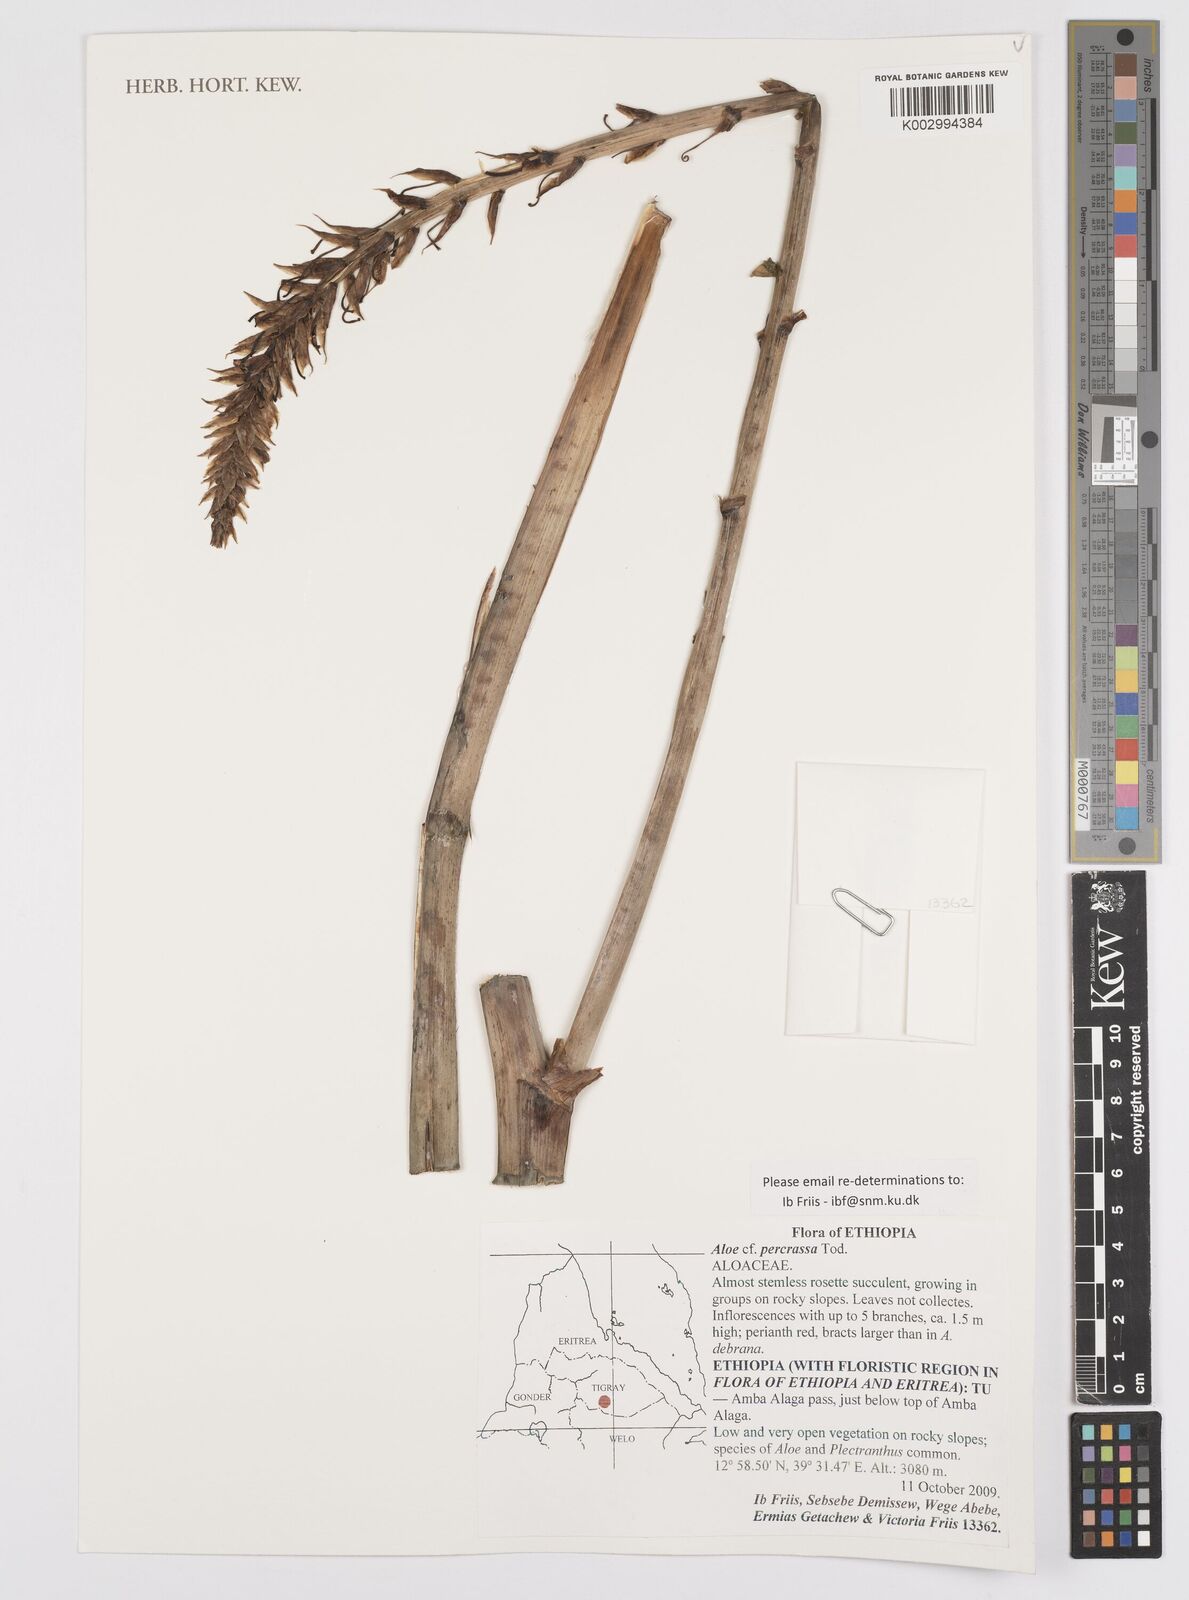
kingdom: Plantae
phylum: Tracheophyta
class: Liliopsida
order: Asparagales
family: Asphodelaceae
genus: Aloe
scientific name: Aloe percrassa
